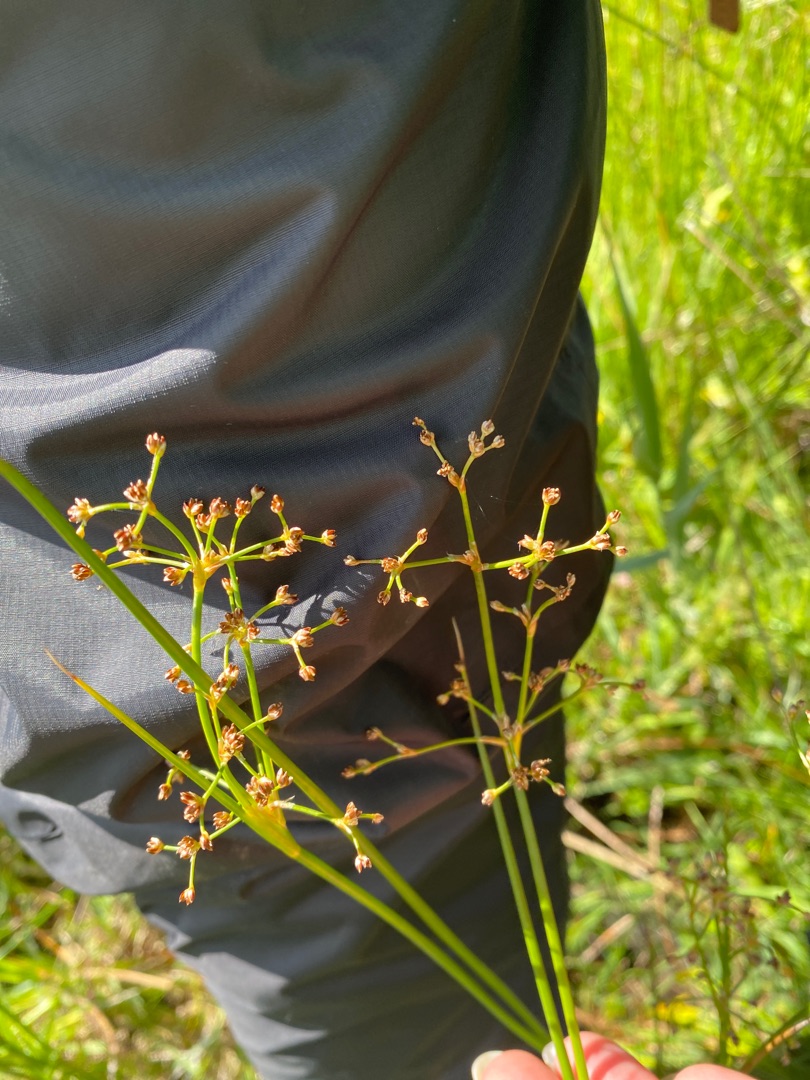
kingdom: Plantae
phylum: Tracheophyta
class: Liliopsida
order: Poales
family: Juncaceae
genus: Juncus
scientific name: Juncus subnodulosus
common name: Butblomstret siv
